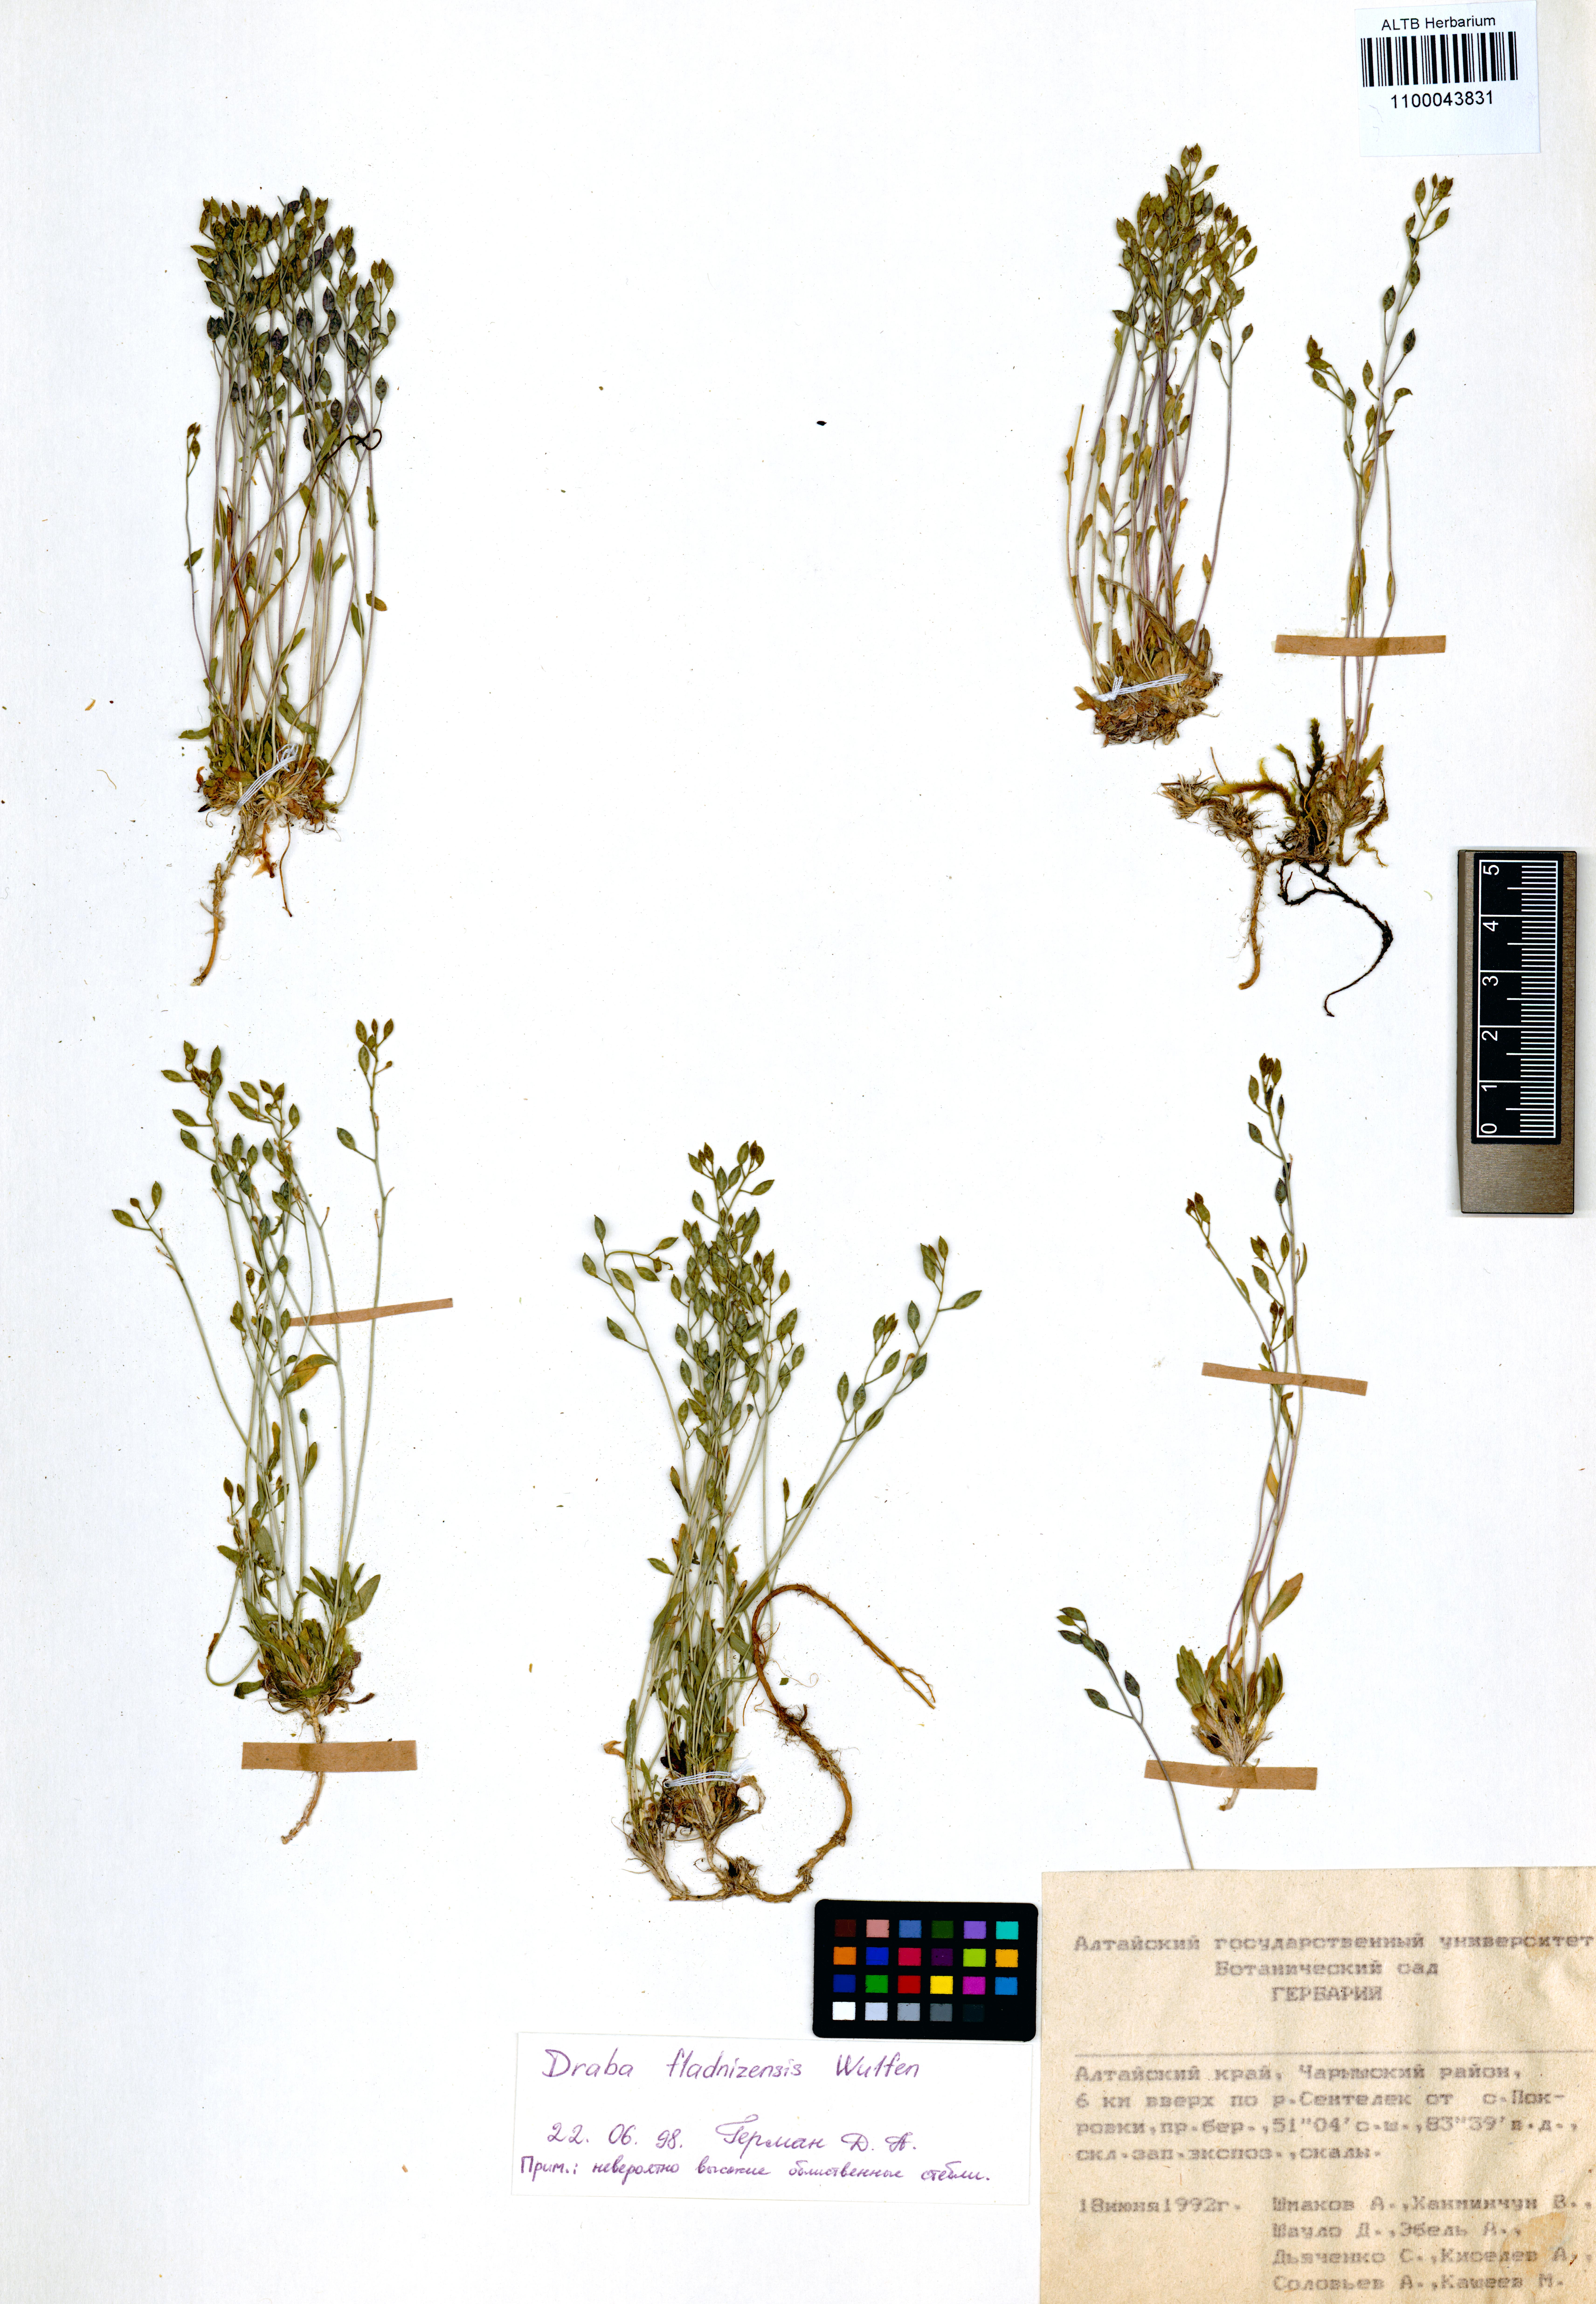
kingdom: Plantae
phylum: Tracheophyta
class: Magnoliopsida
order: Brassicales
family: Brassicaceae
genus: Draba
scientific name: Draba fladnizensis
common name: Austrian draba
